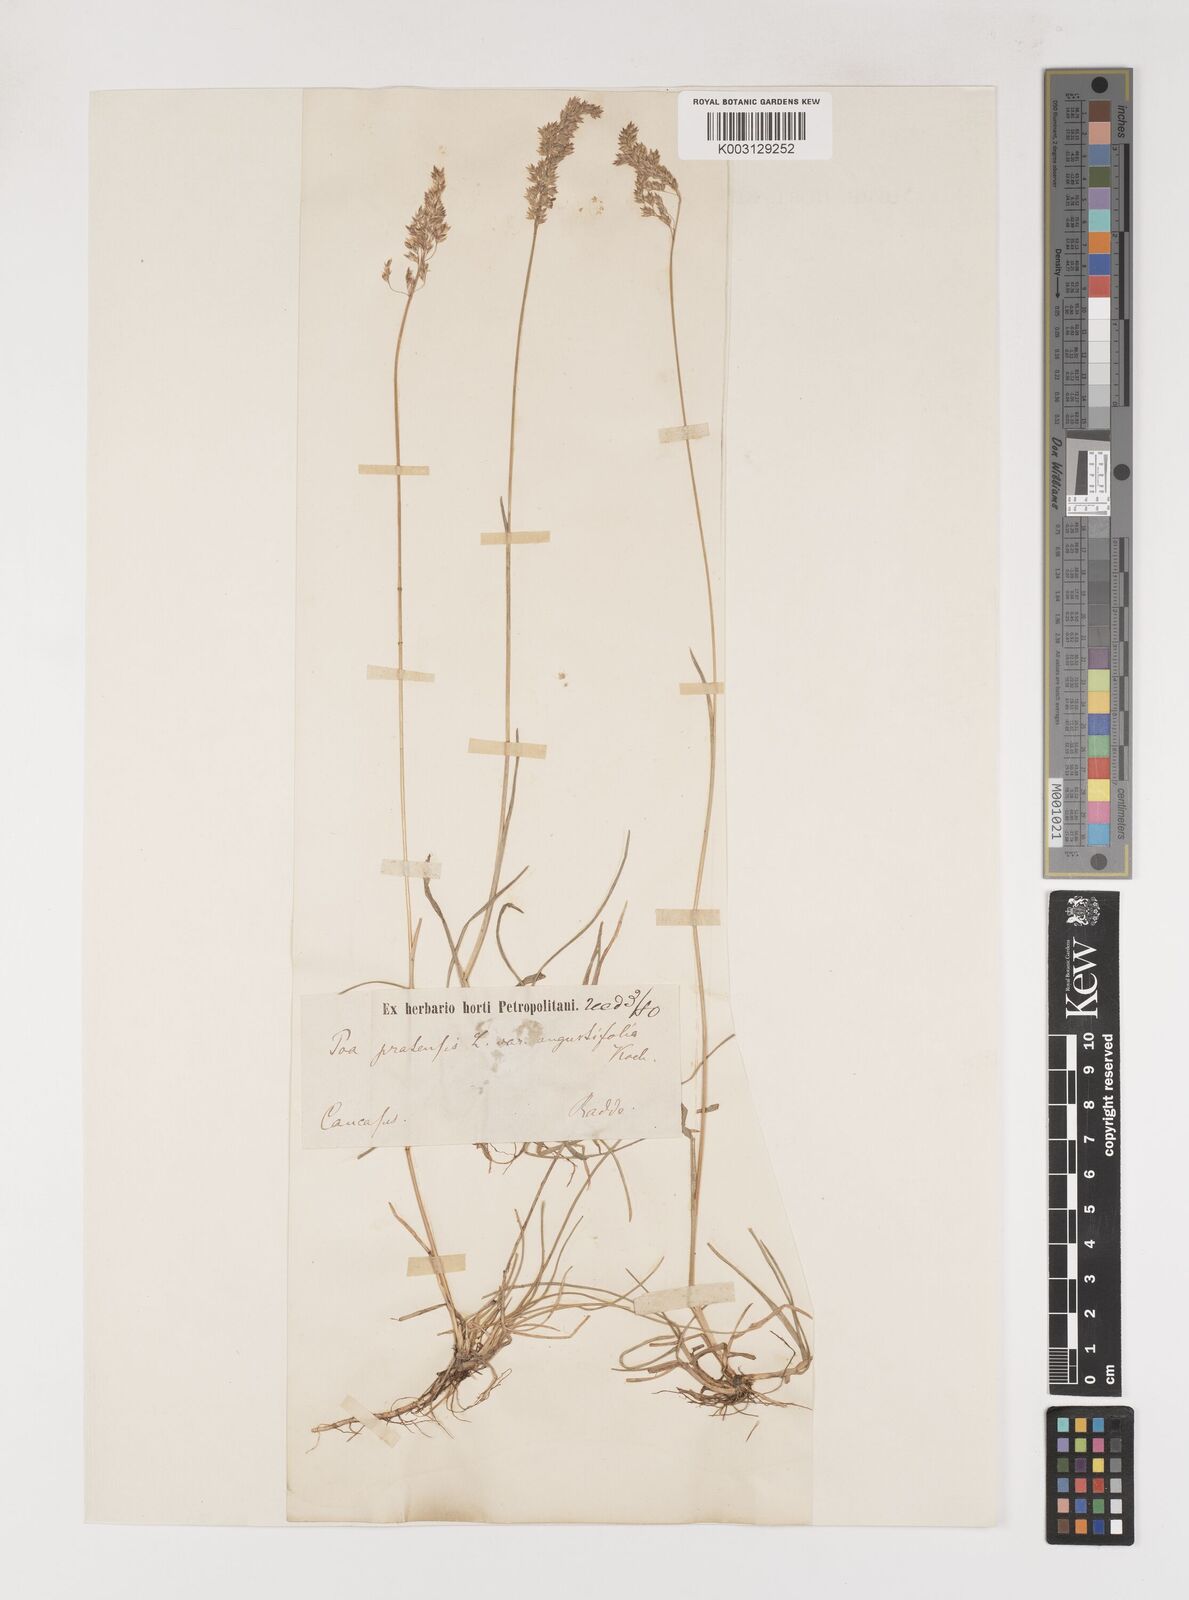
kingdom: Plantae
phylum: Tracheophyta
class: Liliopsida
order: Poales
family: Poaceae
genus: Poa
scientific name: Poa angustifolia
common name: Narrow-leaved meadow-grass
